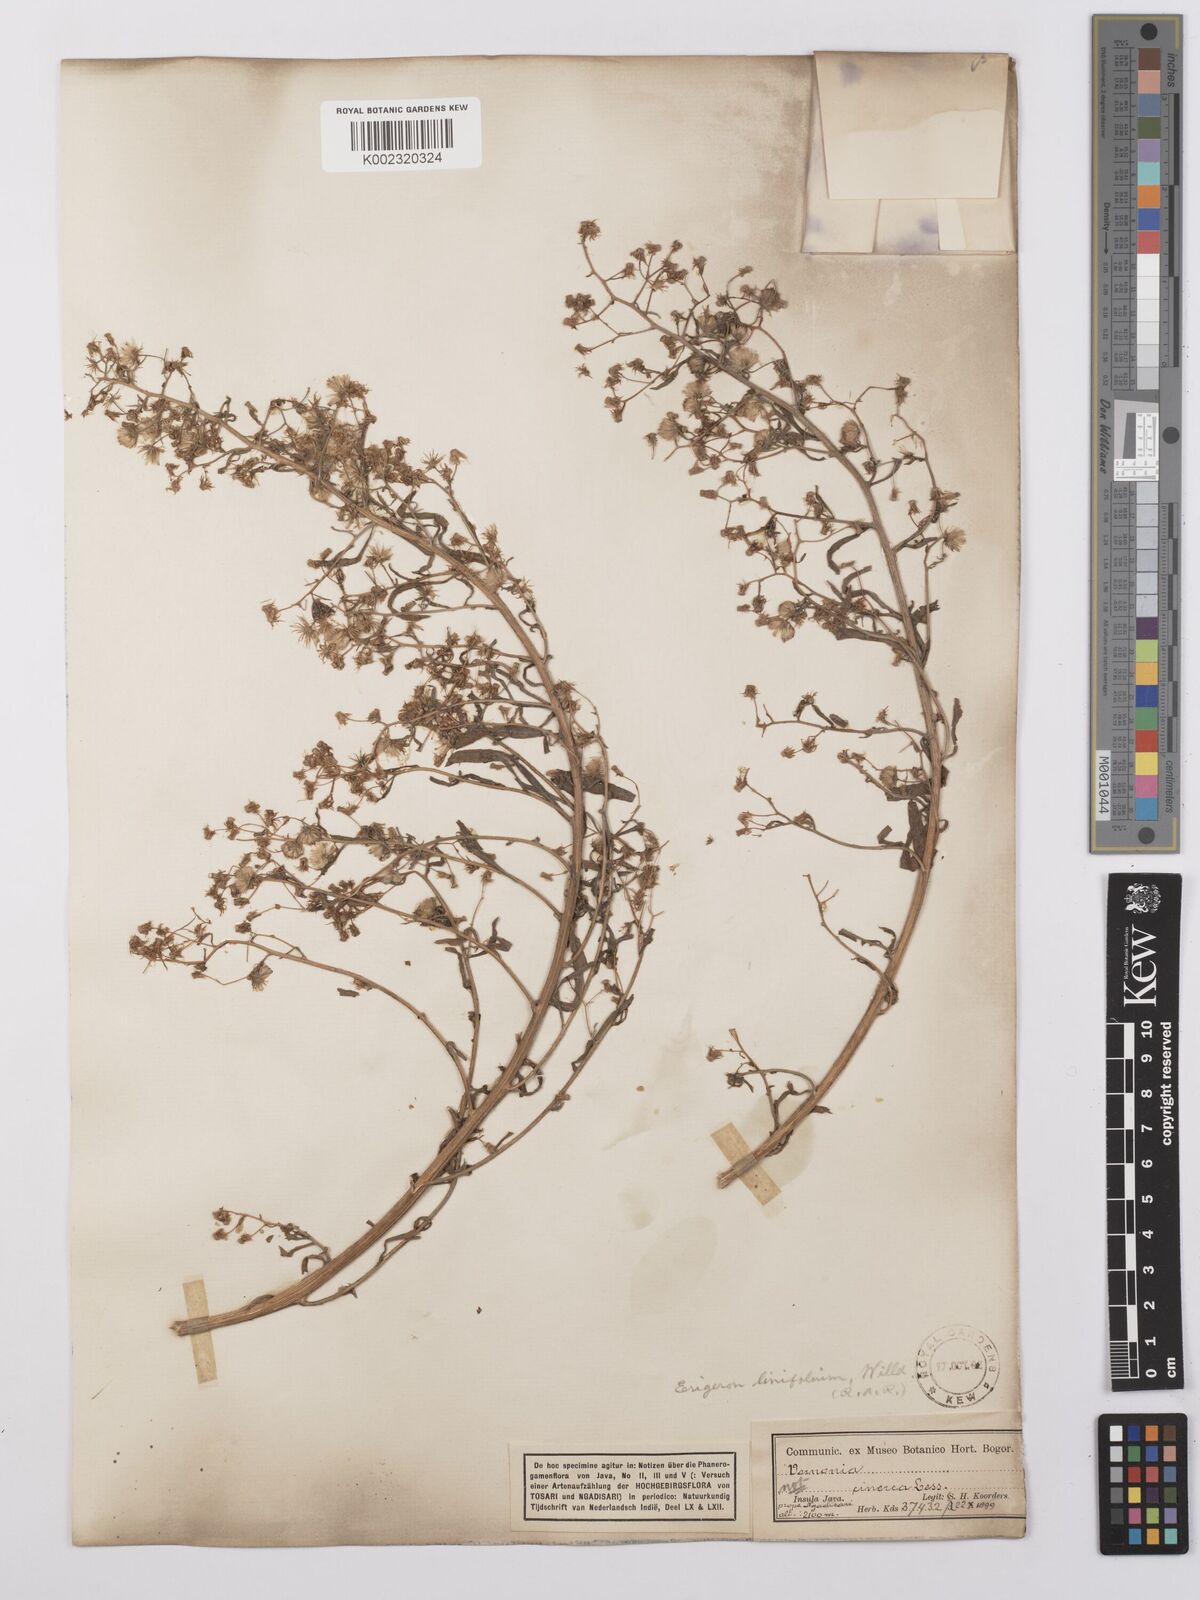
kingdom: Plantae
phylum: Tracheophyta
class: Magnoliopsida
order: Asterales
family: Asteraceae
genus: Erigeron
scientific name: Erigeron sumatrensis
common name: Daisy
